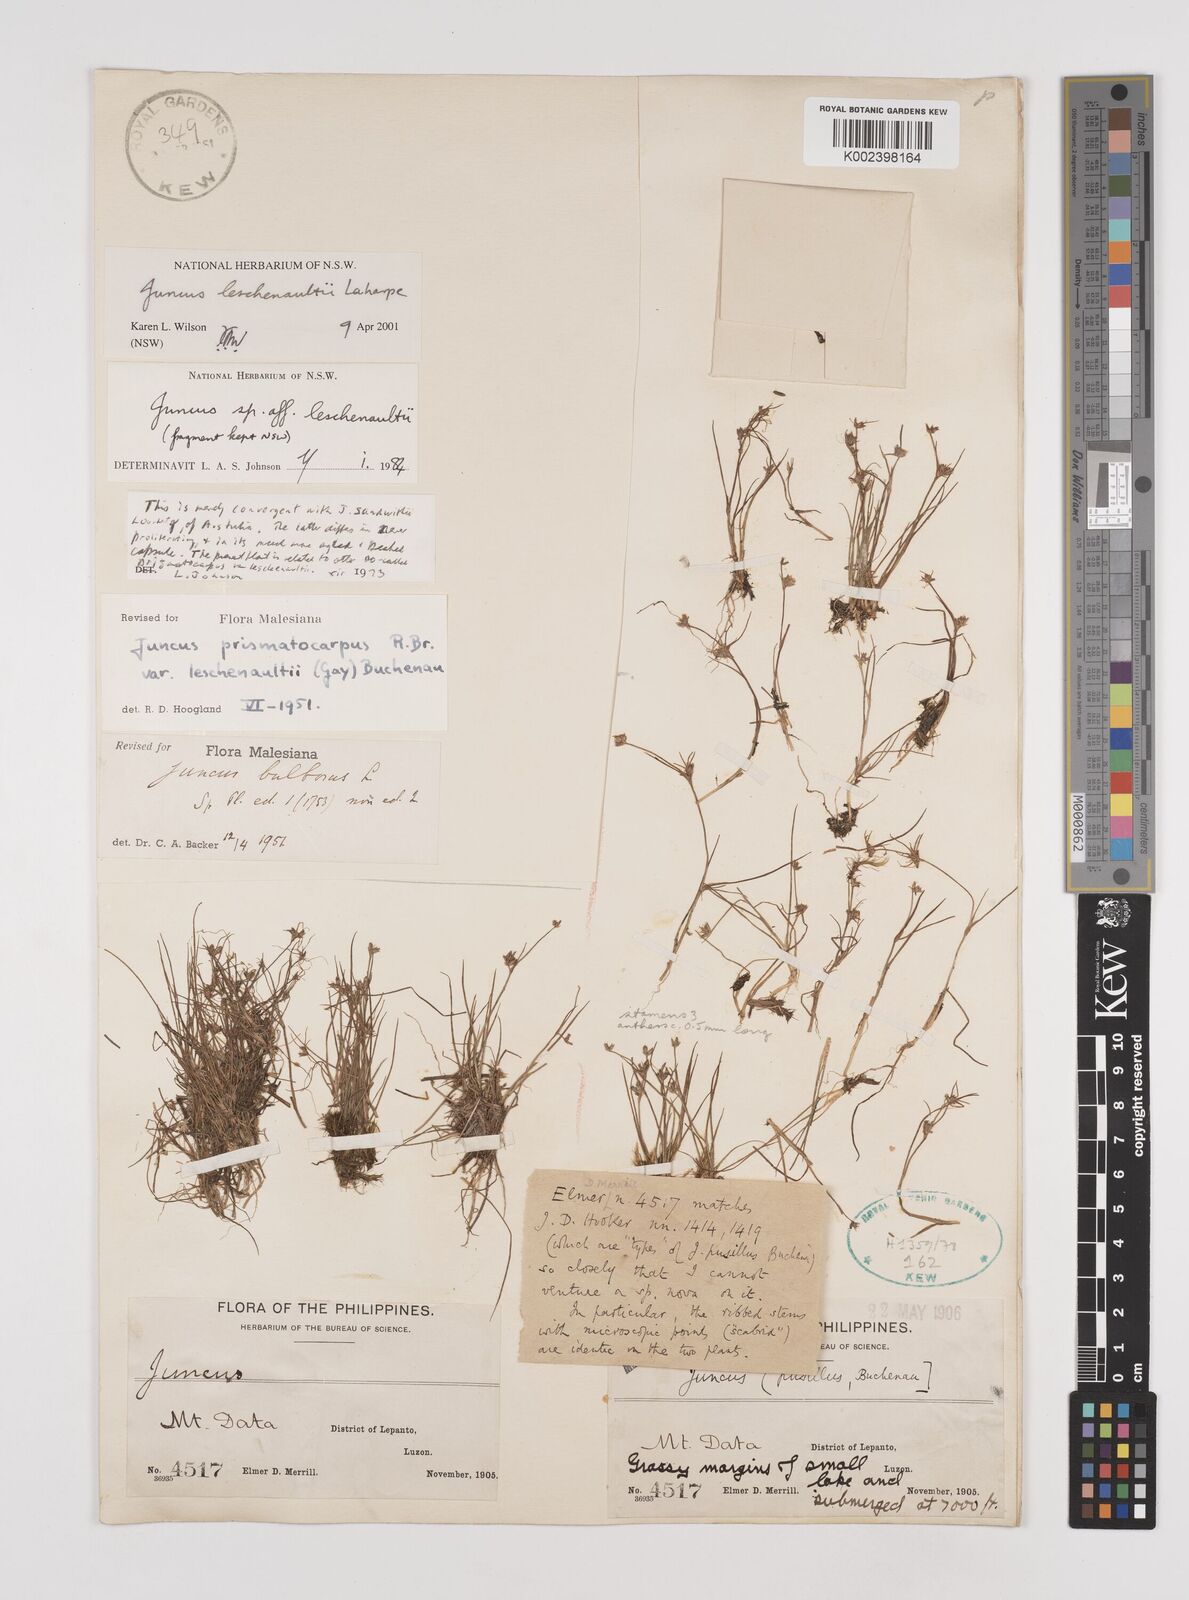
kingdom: Plantae
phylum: Tracheophyta
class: Liliopsida
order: Poales
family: Juncaceae
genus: Juncus
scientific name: Juncus prismatocarpus
